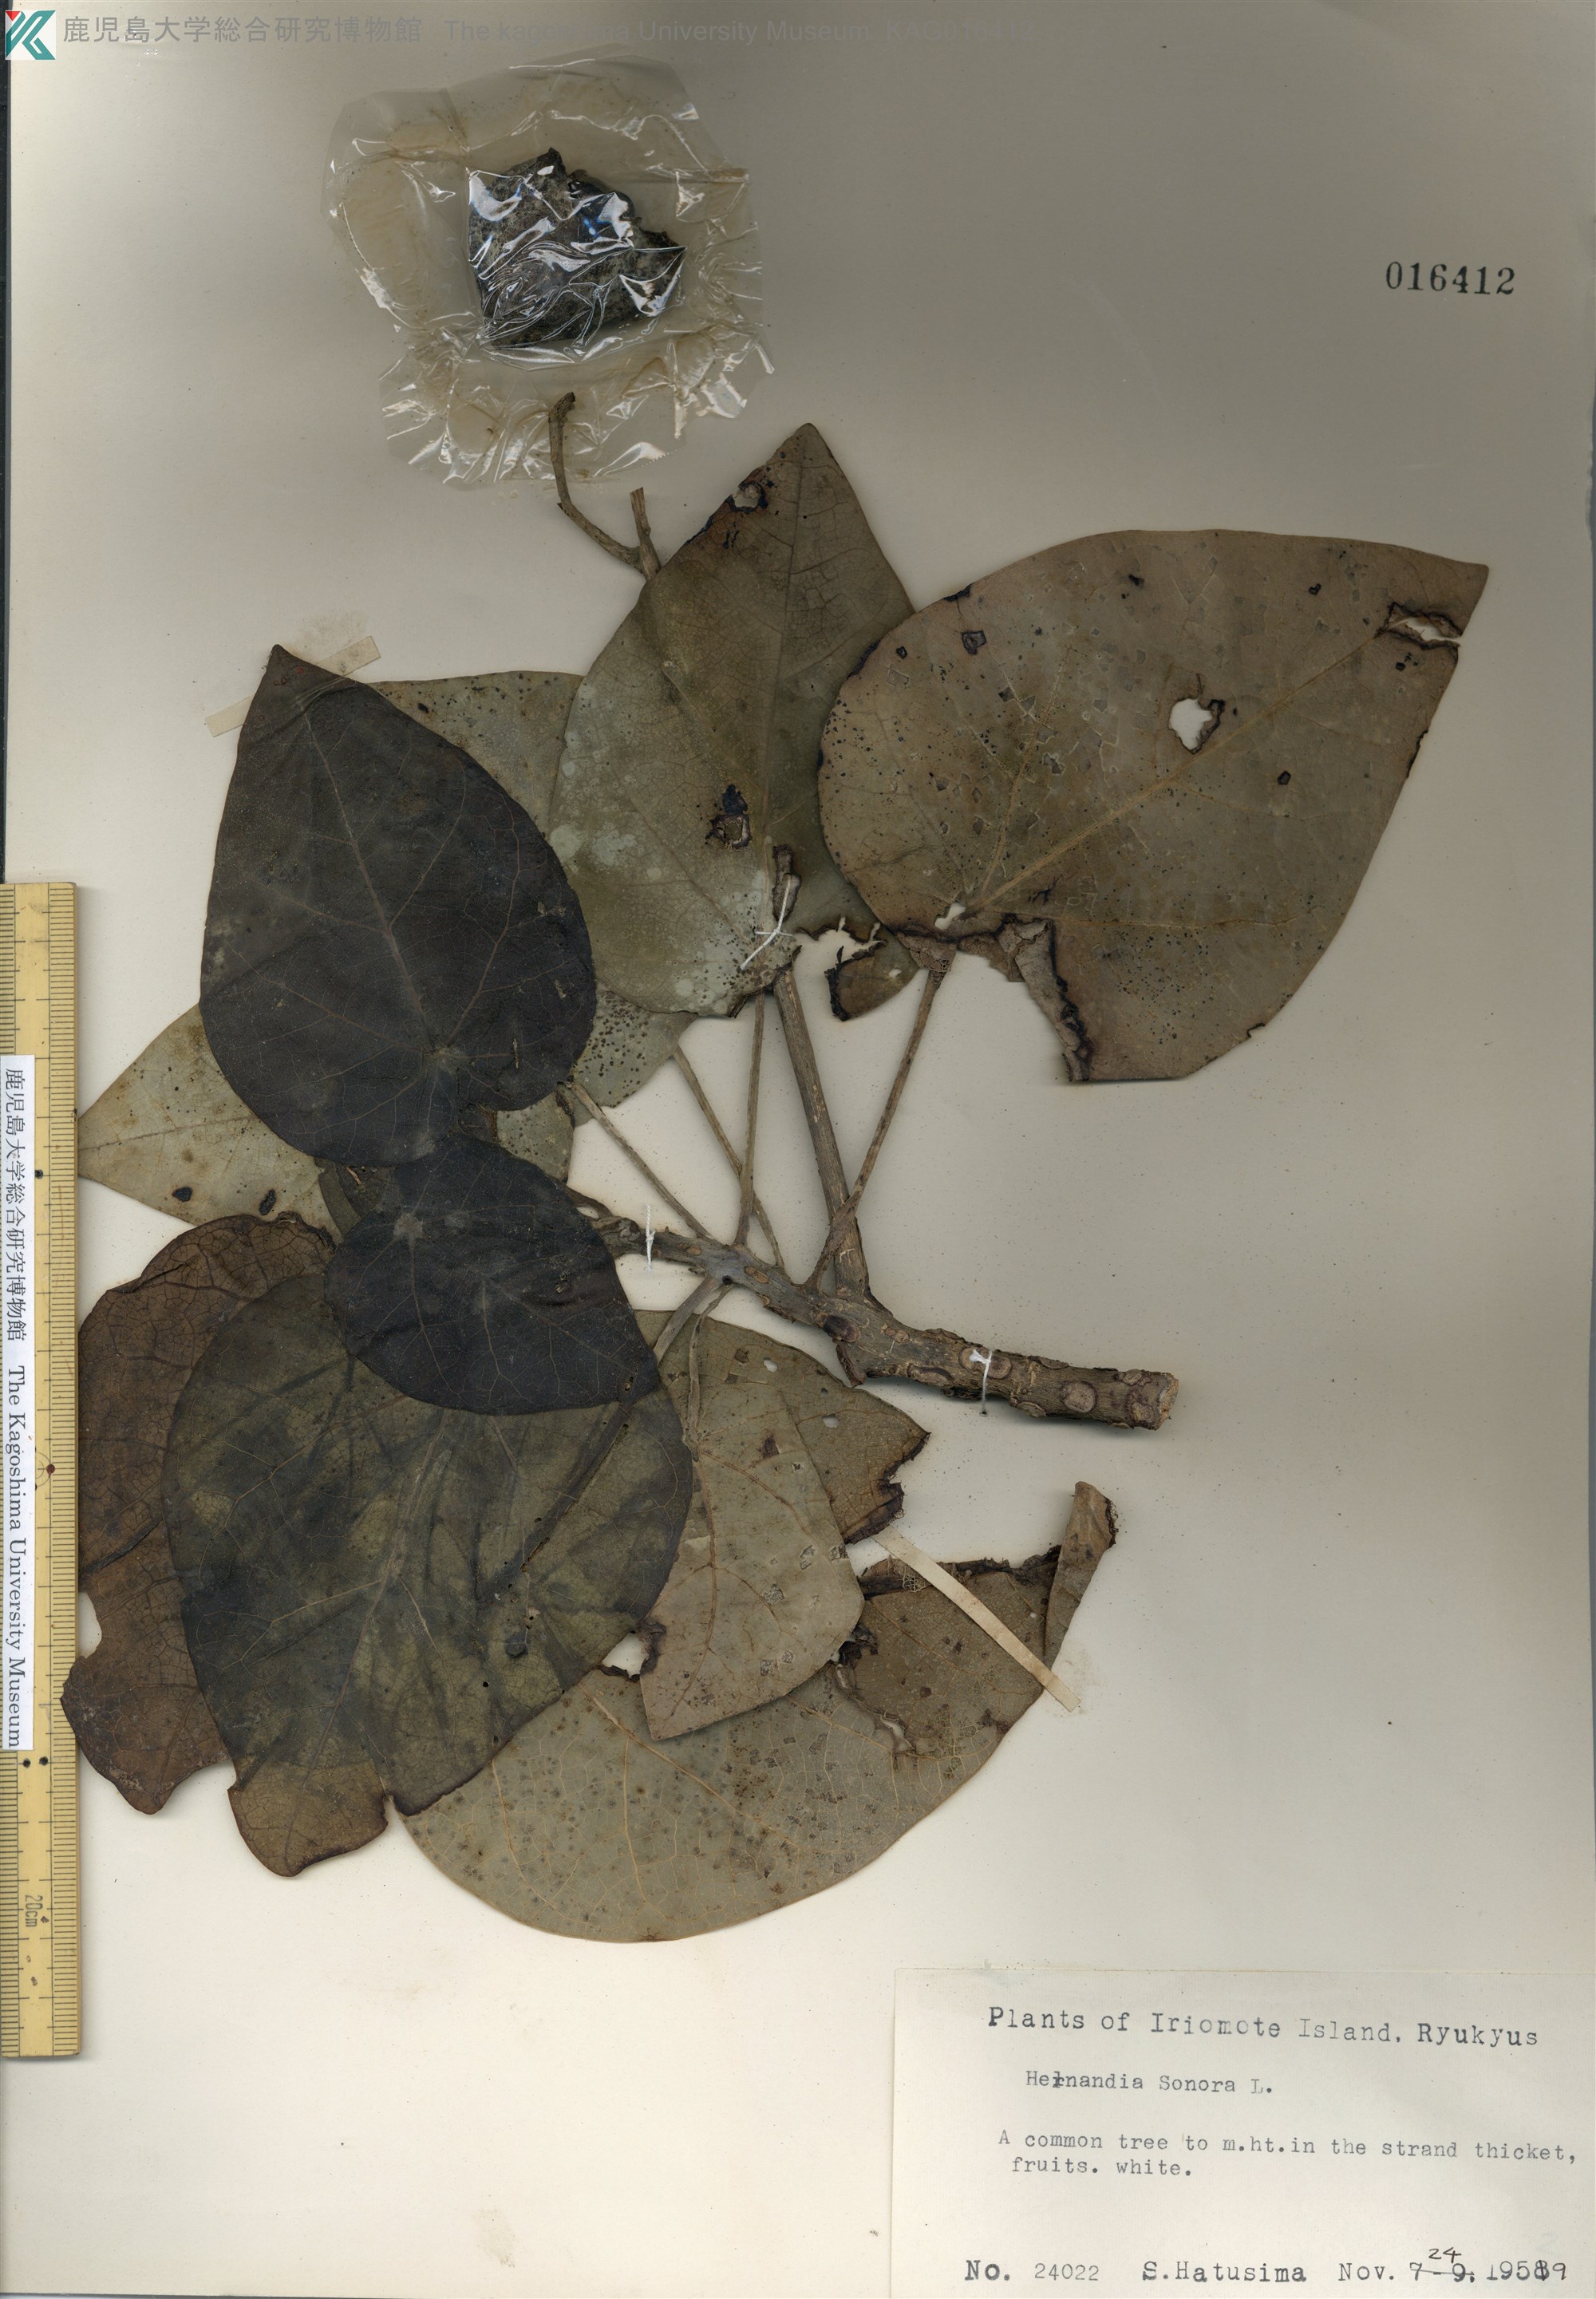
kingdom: Plantae
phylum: Tracheophyta
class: Magnoliopsida
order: Laurales
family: Hernandiaceae
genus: Hernandia
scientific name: Hernandia nymphaeifolia
